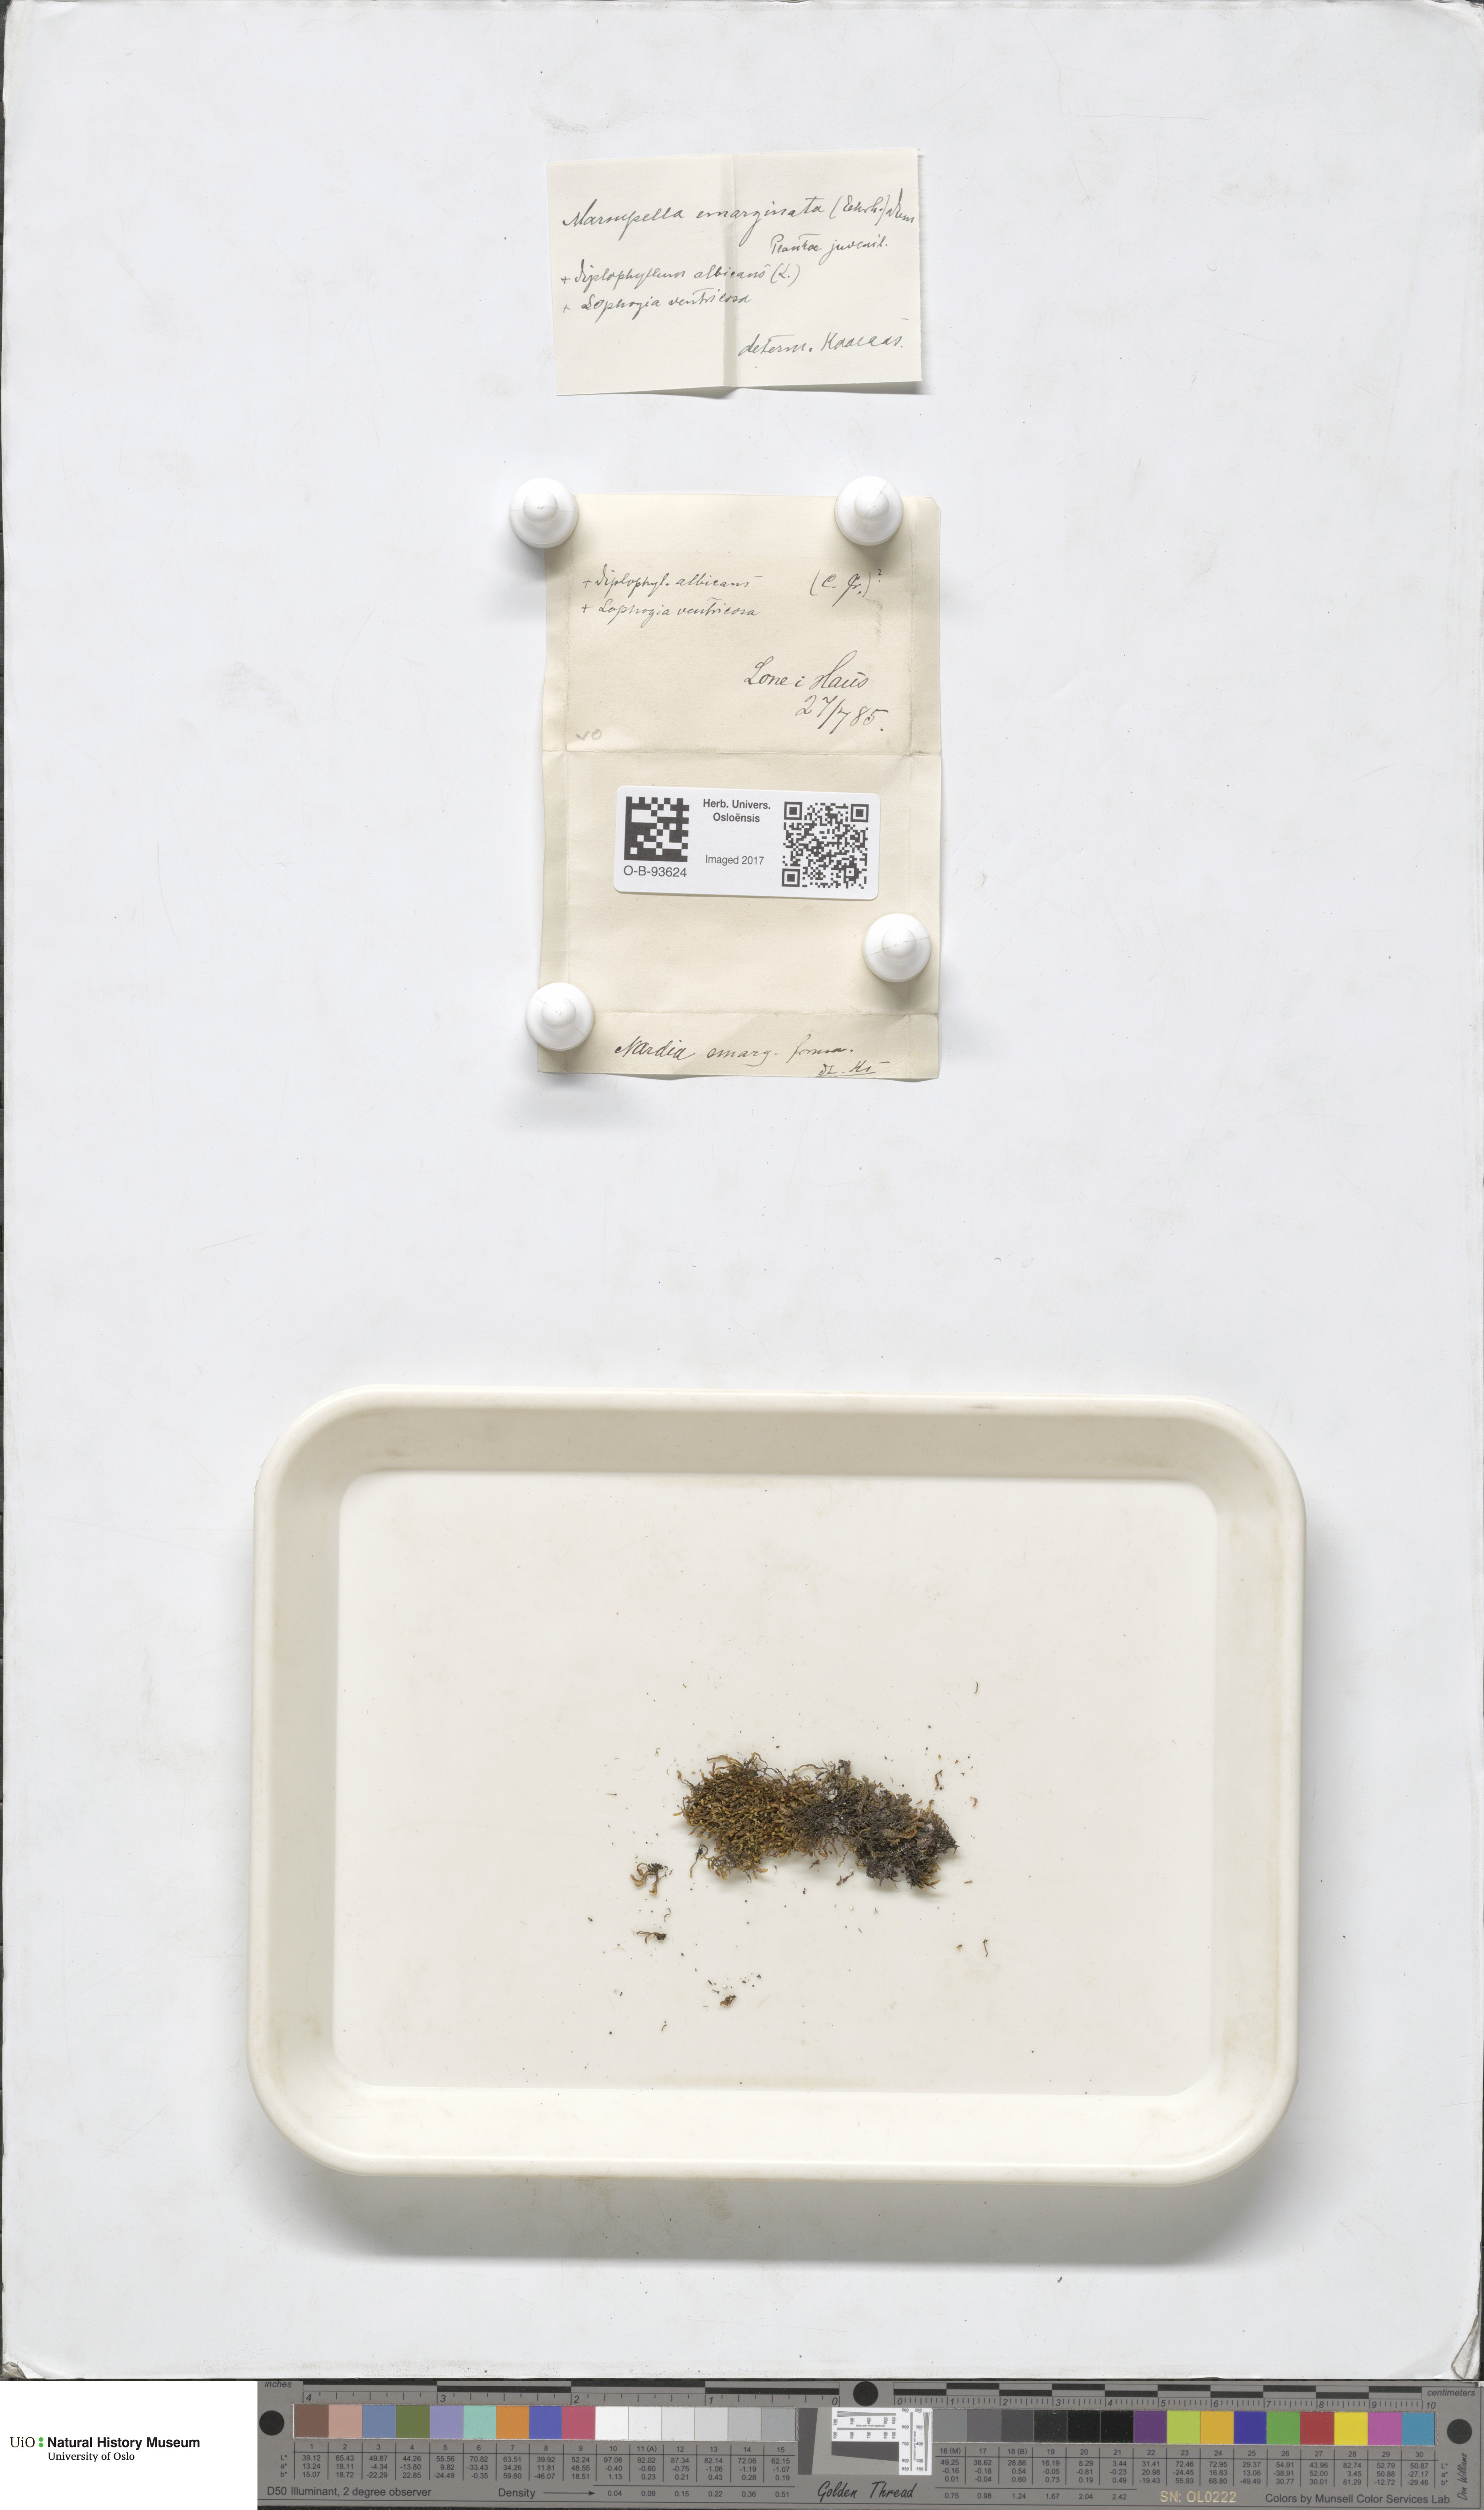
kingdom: Plantae
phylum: Marchantiophyta
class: Jungermanniopsida
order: Jungermanniales
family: Gymnomitriaceae
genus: Marsupella
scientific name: Marsupella emarginata
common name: Notched rustwort
